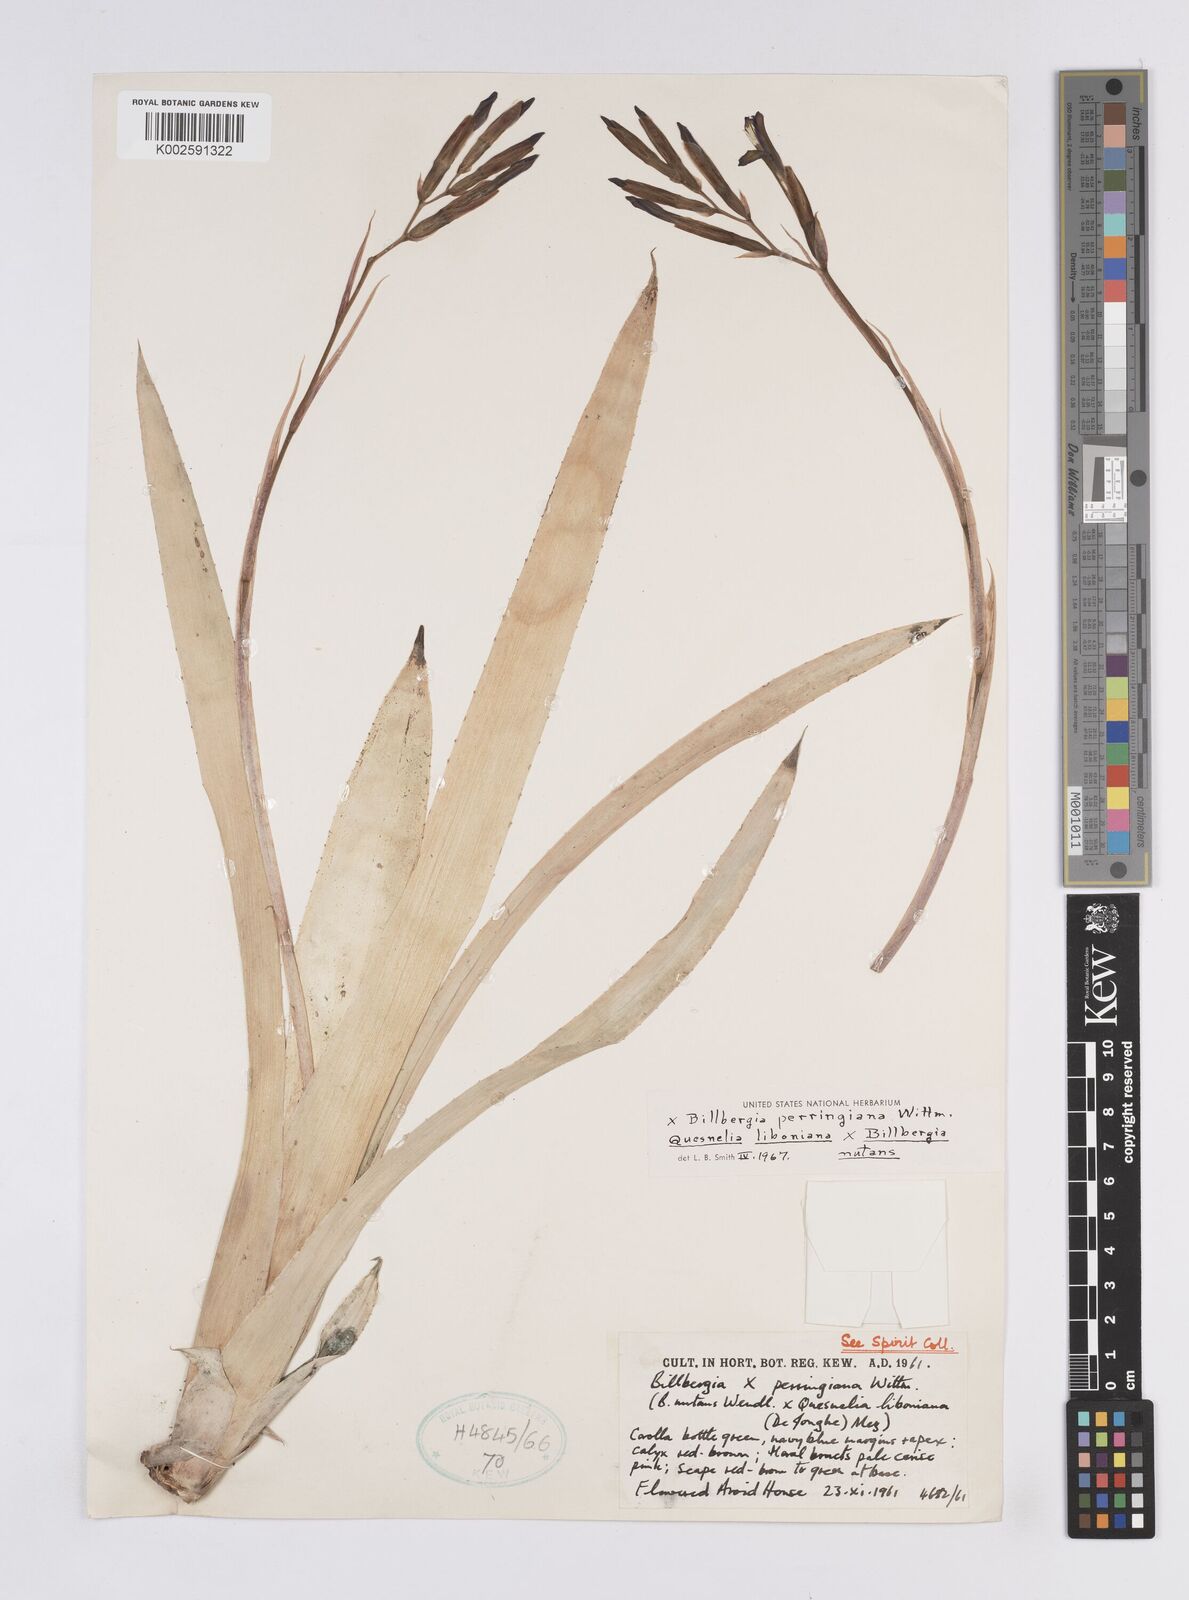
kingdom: Plantae
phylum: Tracheophyta
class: Liliopsida
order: Poales
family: Bromeliaceae
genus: Billbergia
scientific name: Billbergia perringiana
